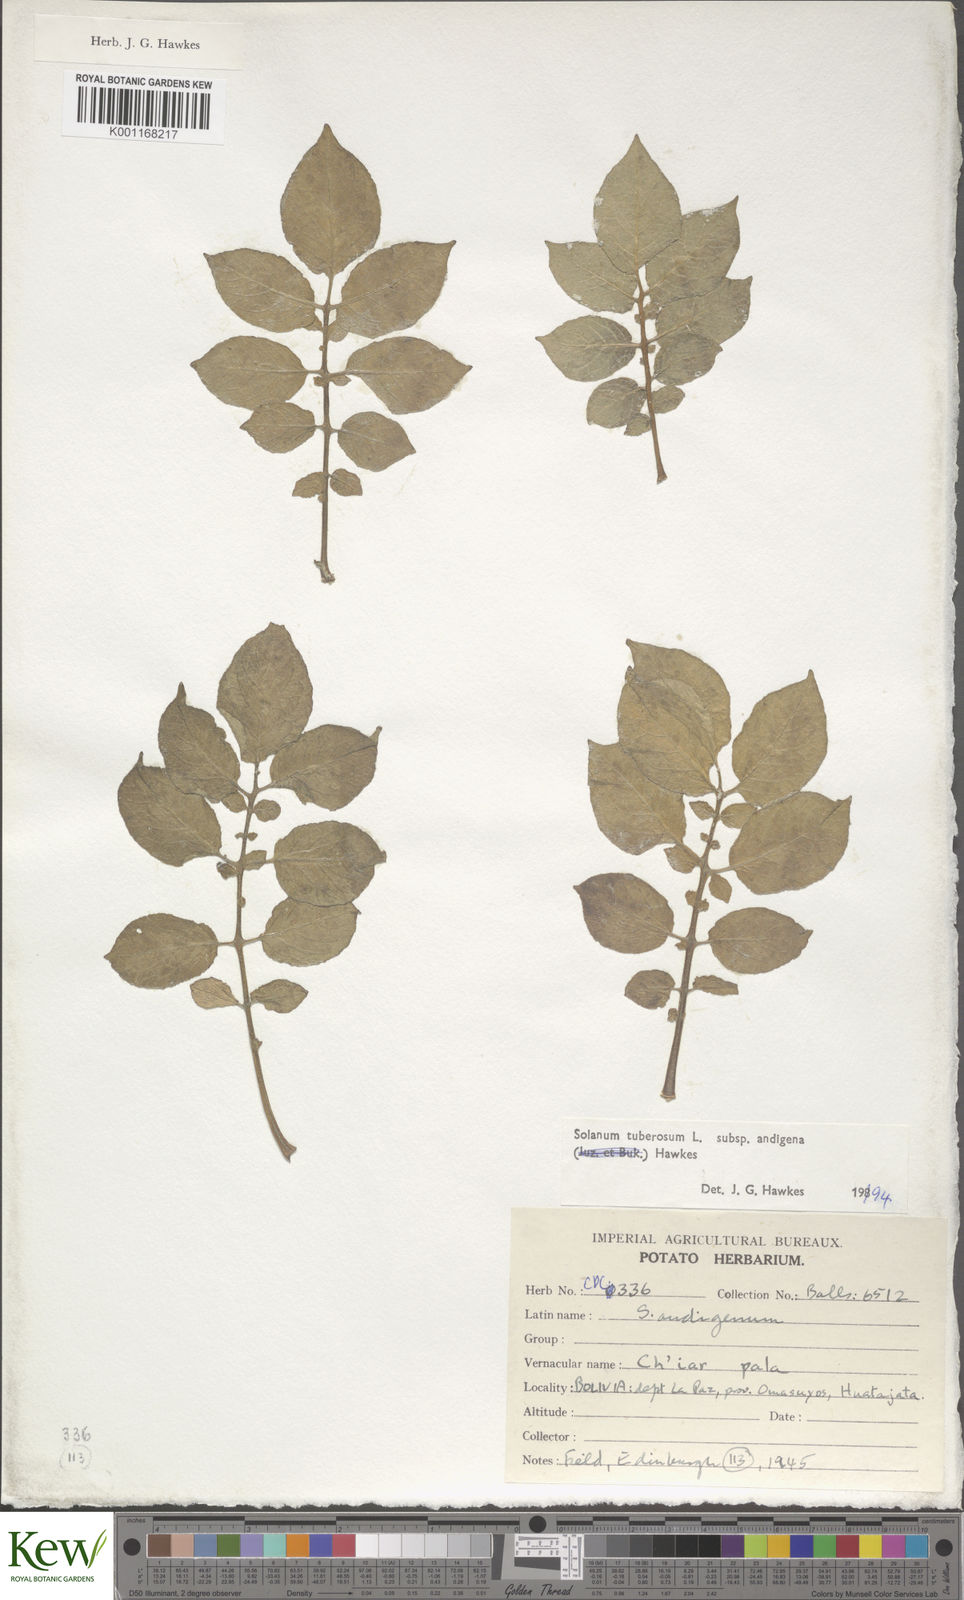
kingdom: Plantae
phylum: Tracheophyta
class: Magnoliopsida
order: Solanales
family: Solanaceae
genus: Solanum
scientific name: Solanum tuberosum
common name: Potato
